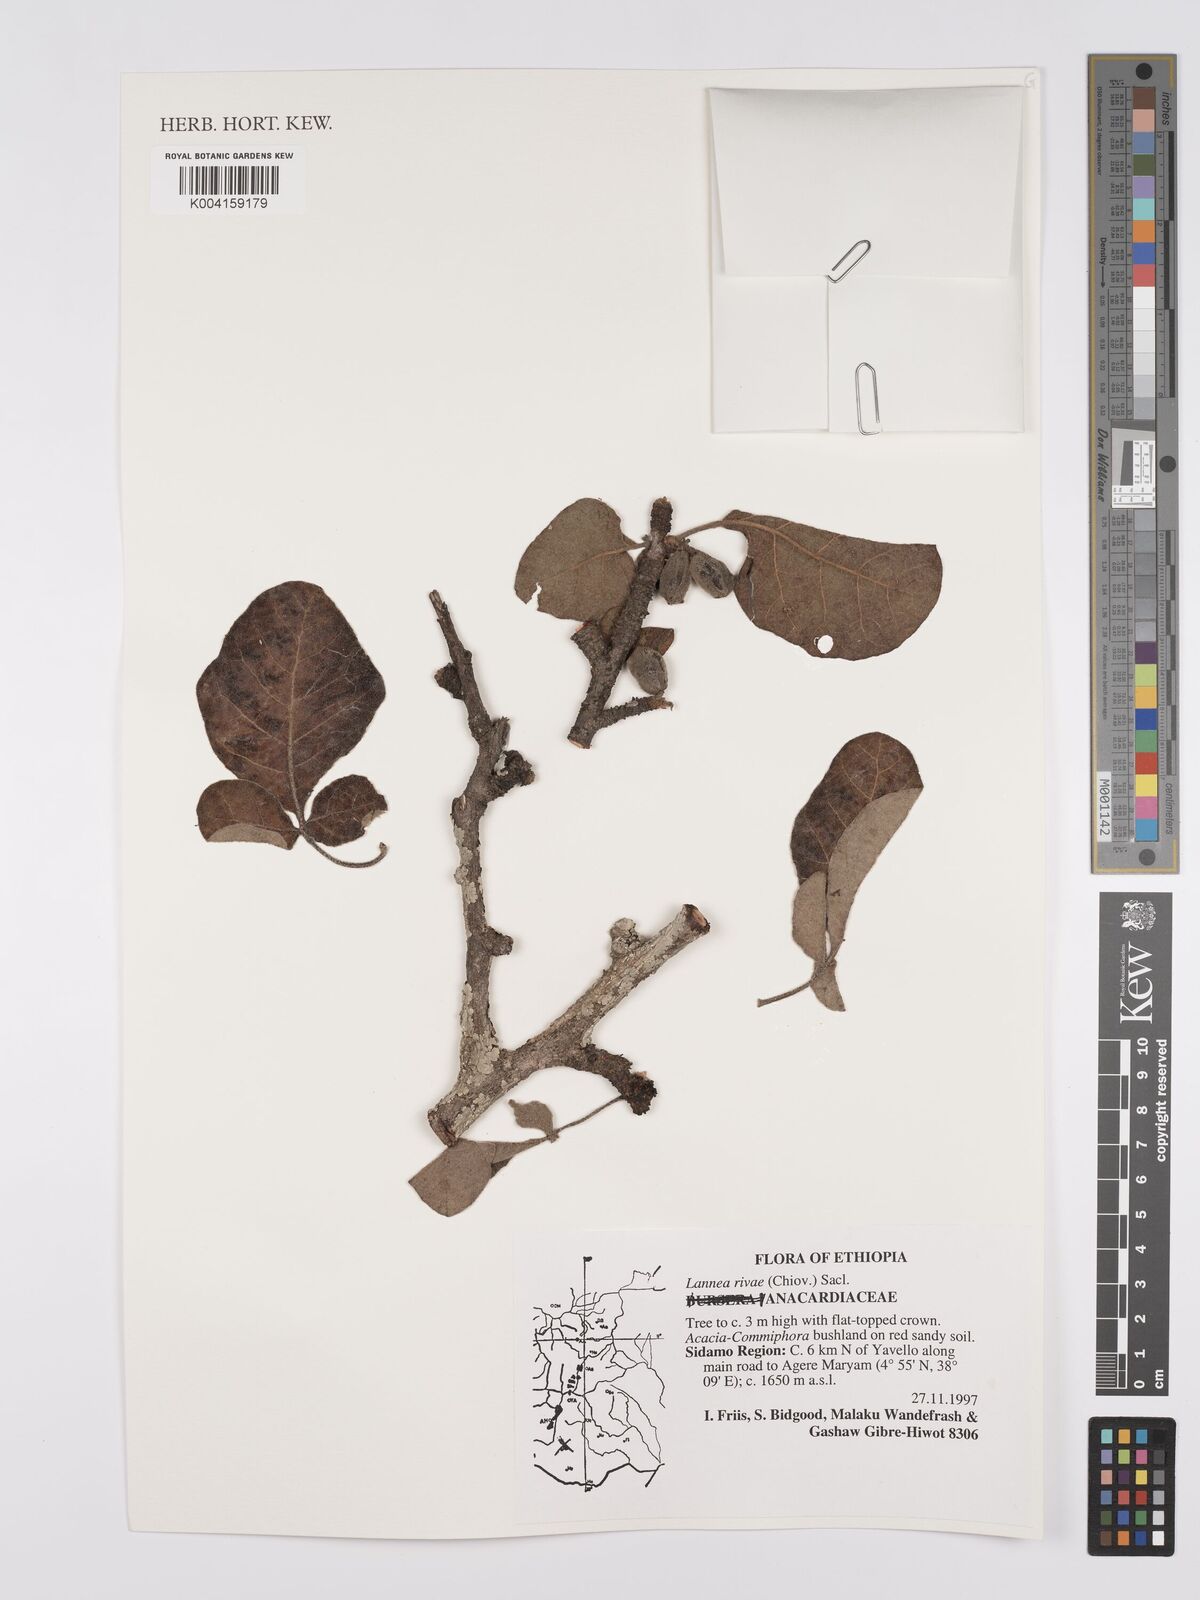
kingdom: Plantae
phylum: Tracheophyta
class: Magnoliopsida
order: Sapindales
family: Anacardiaceae
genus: Lannea
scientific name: Lannea rivae
